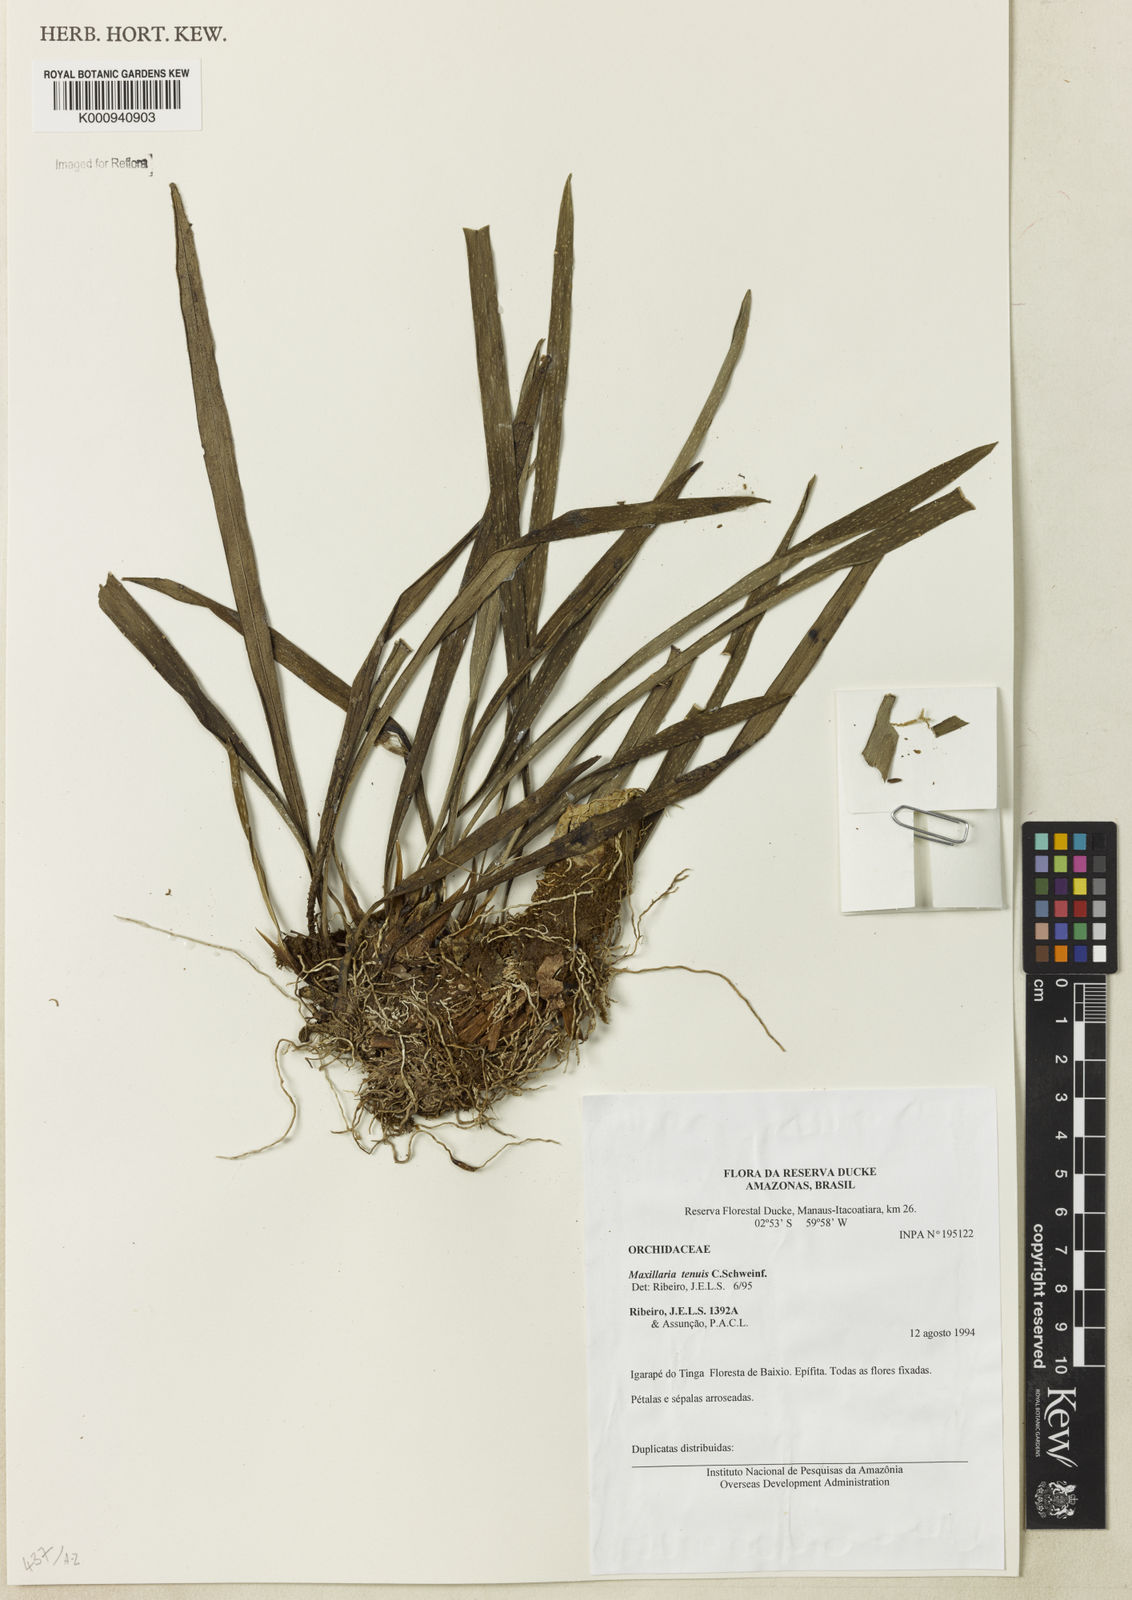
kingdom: Plantae
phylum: Tracheophyta
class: Liliopsida
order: Asparagales
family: Orchidaceae
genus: Maxillaria
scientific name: Maxillaria tenuis
